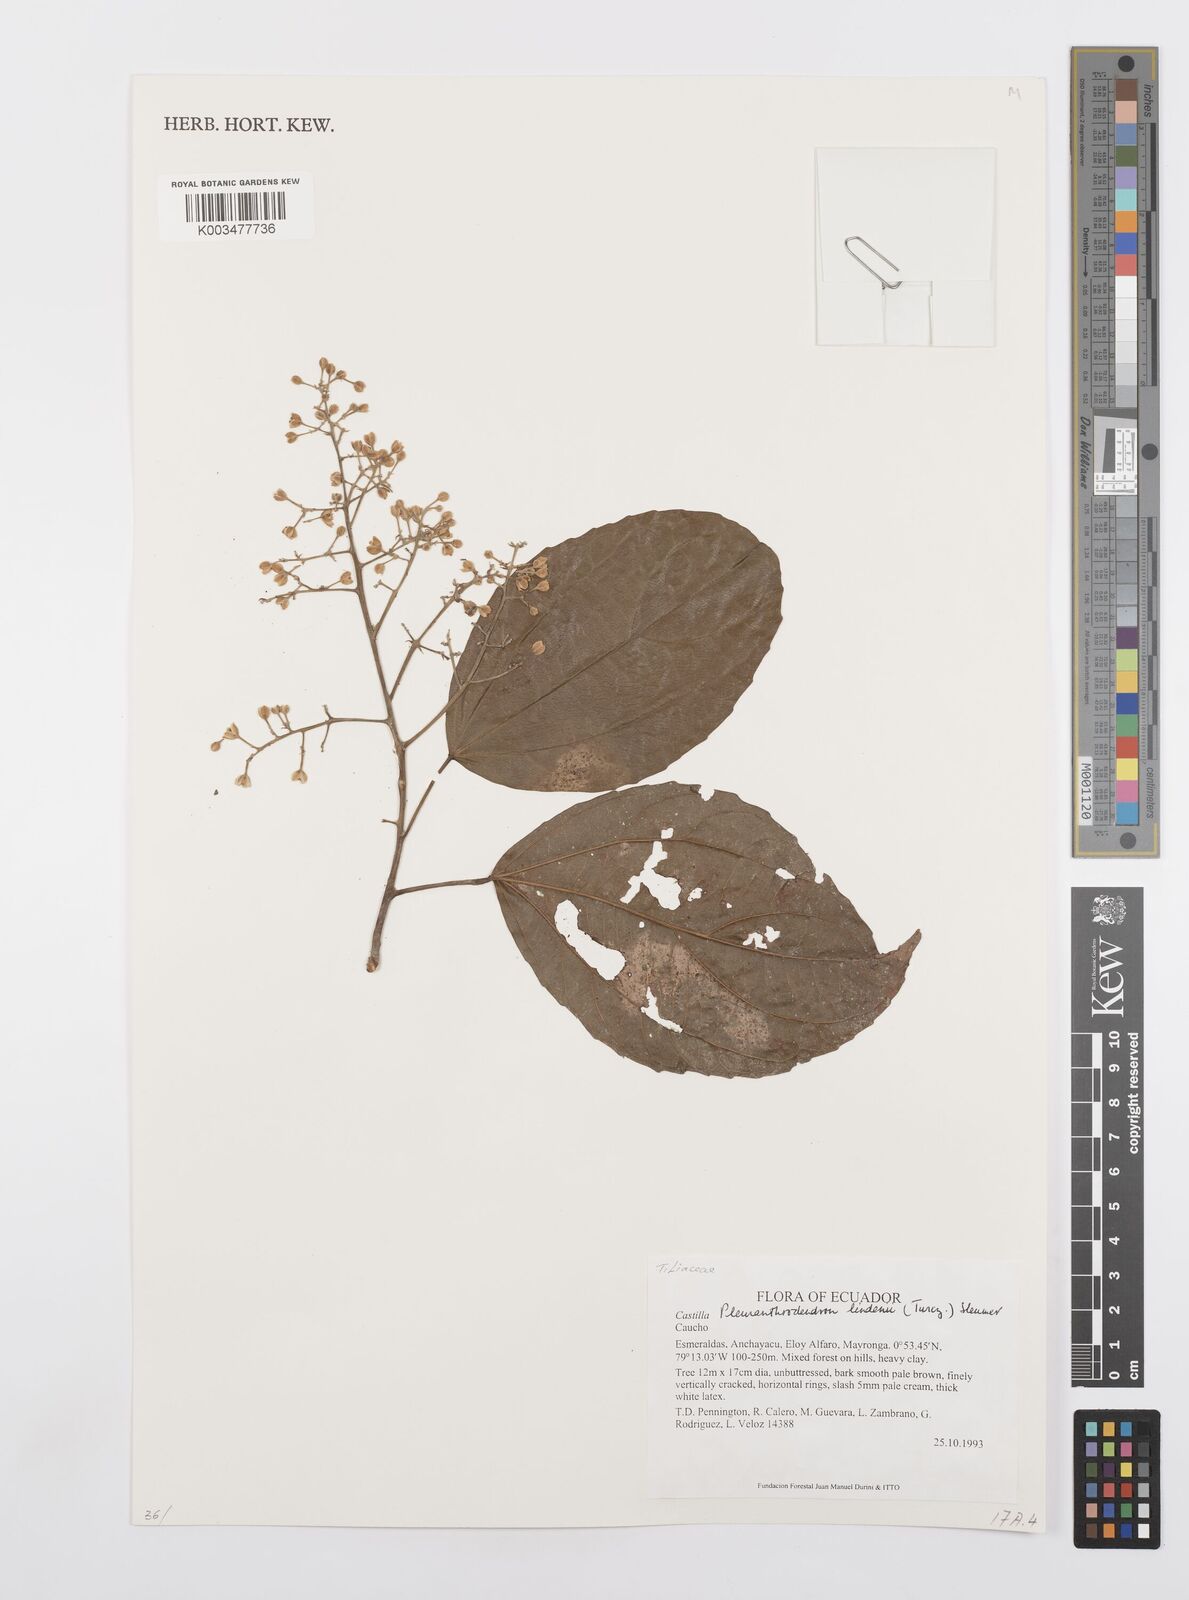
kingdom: Plantae
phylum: Tracheophyta
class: Magnoliopsida
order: Malpighiales
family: Salicaceae
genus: Pleuranthodendron
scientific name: Pleuranthodendron lindenii
